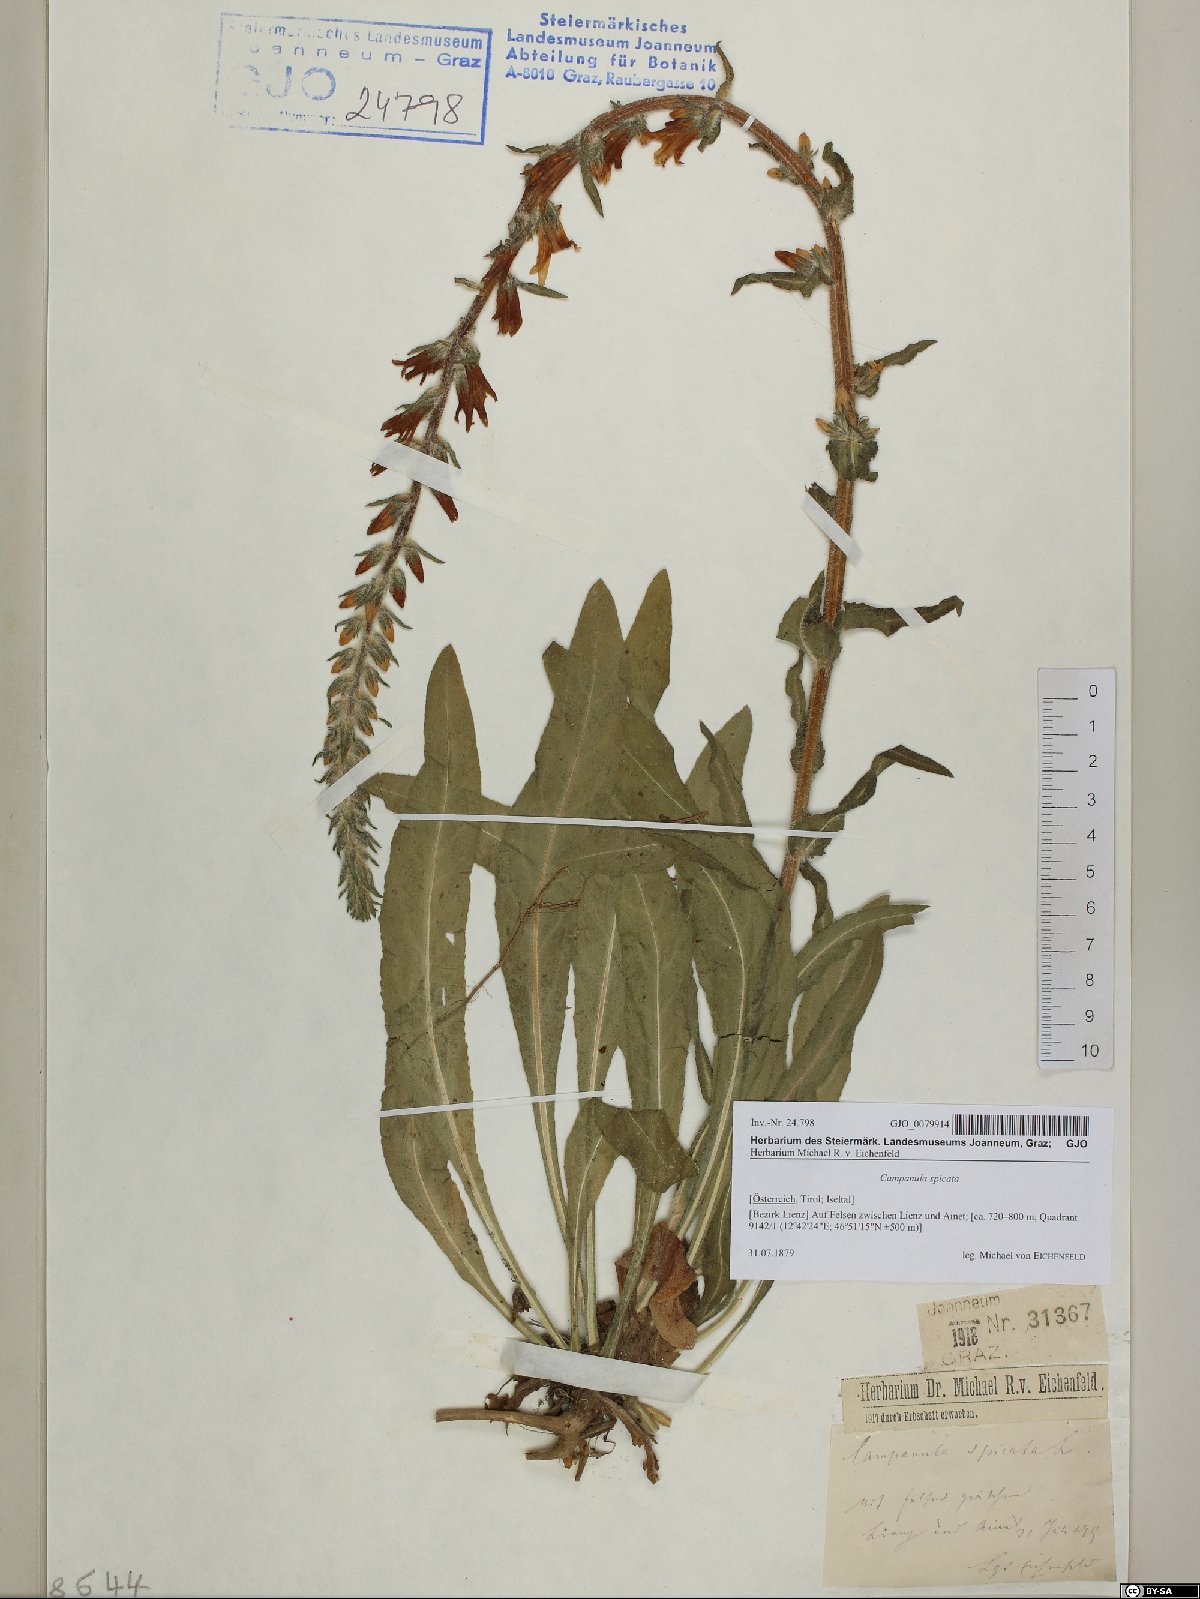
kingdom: Plantae
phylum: Tracheophyta
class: Magnoliopsida
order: Asterales
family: Campanulaceae
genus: Campanula
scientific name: Campanula spicata
